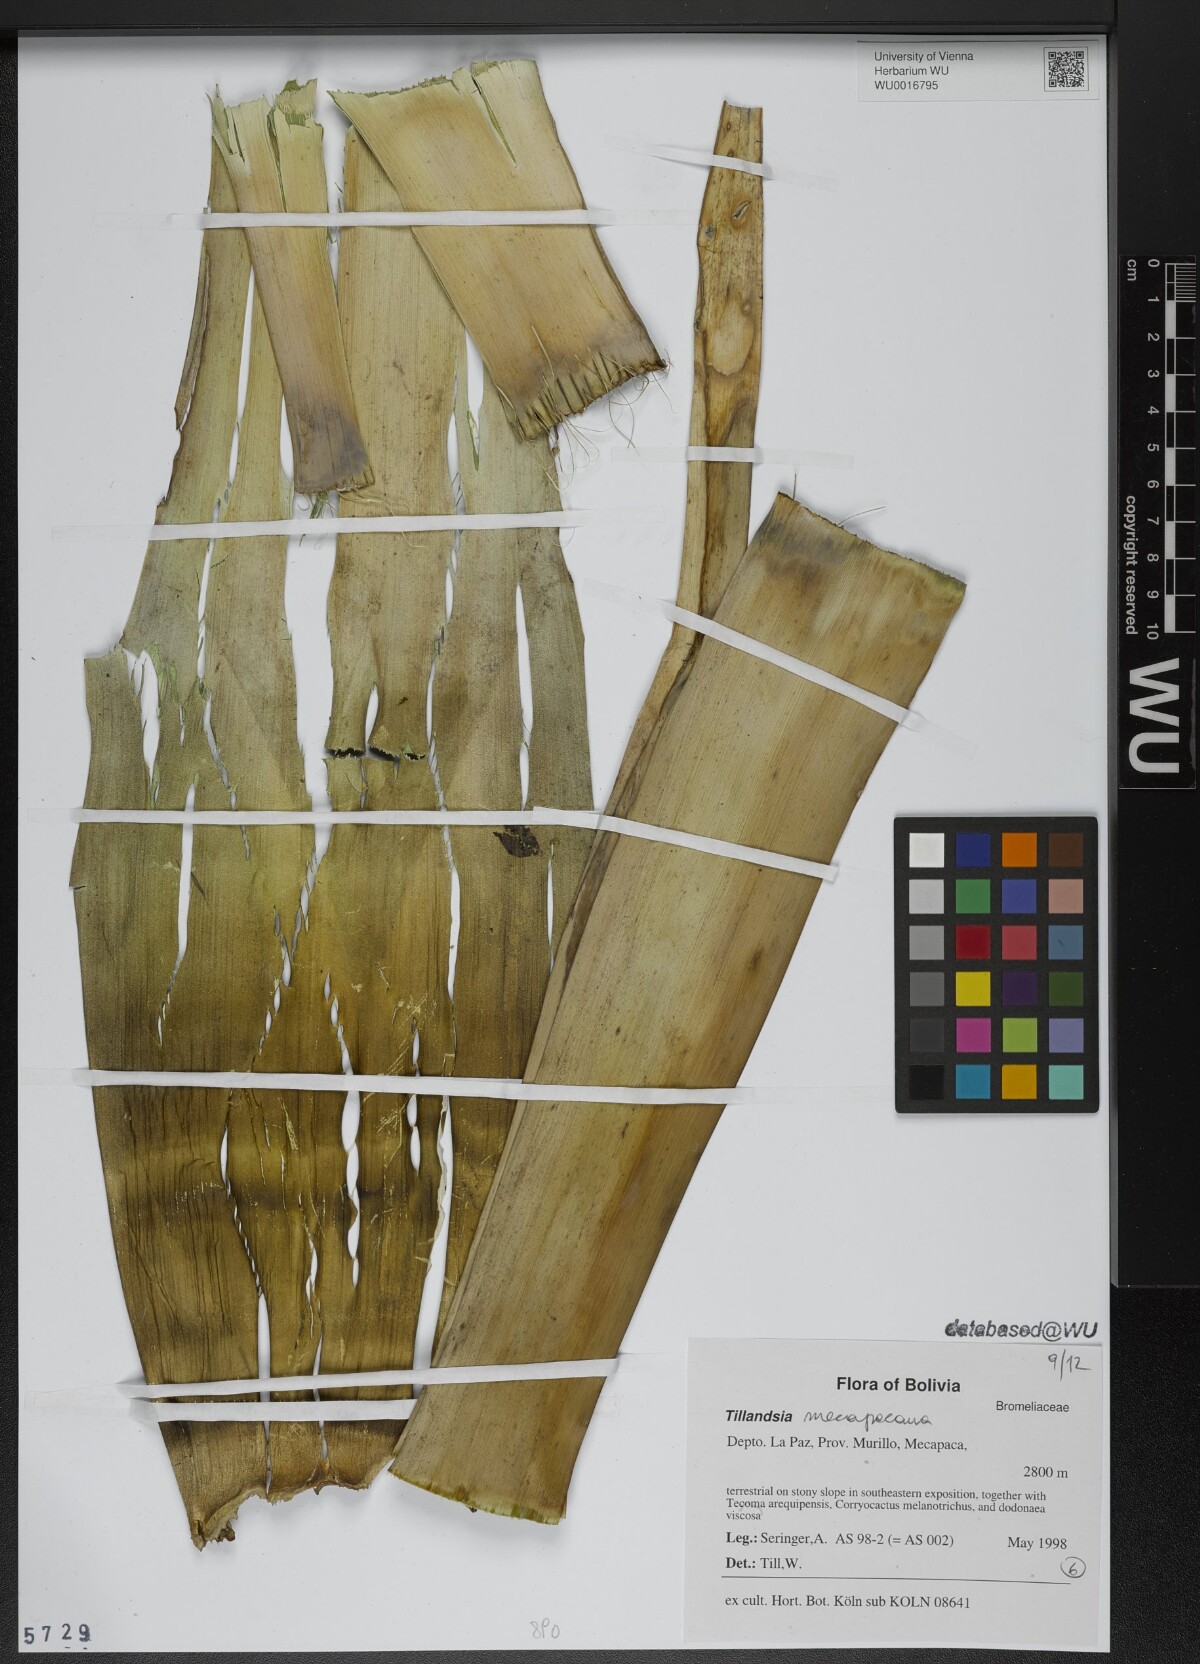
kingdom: Plantae
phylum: Tracheophyta
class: Liliopsida
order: Poales
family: Bromeliaceae
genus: Tillandsia
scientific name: Tillandsia
